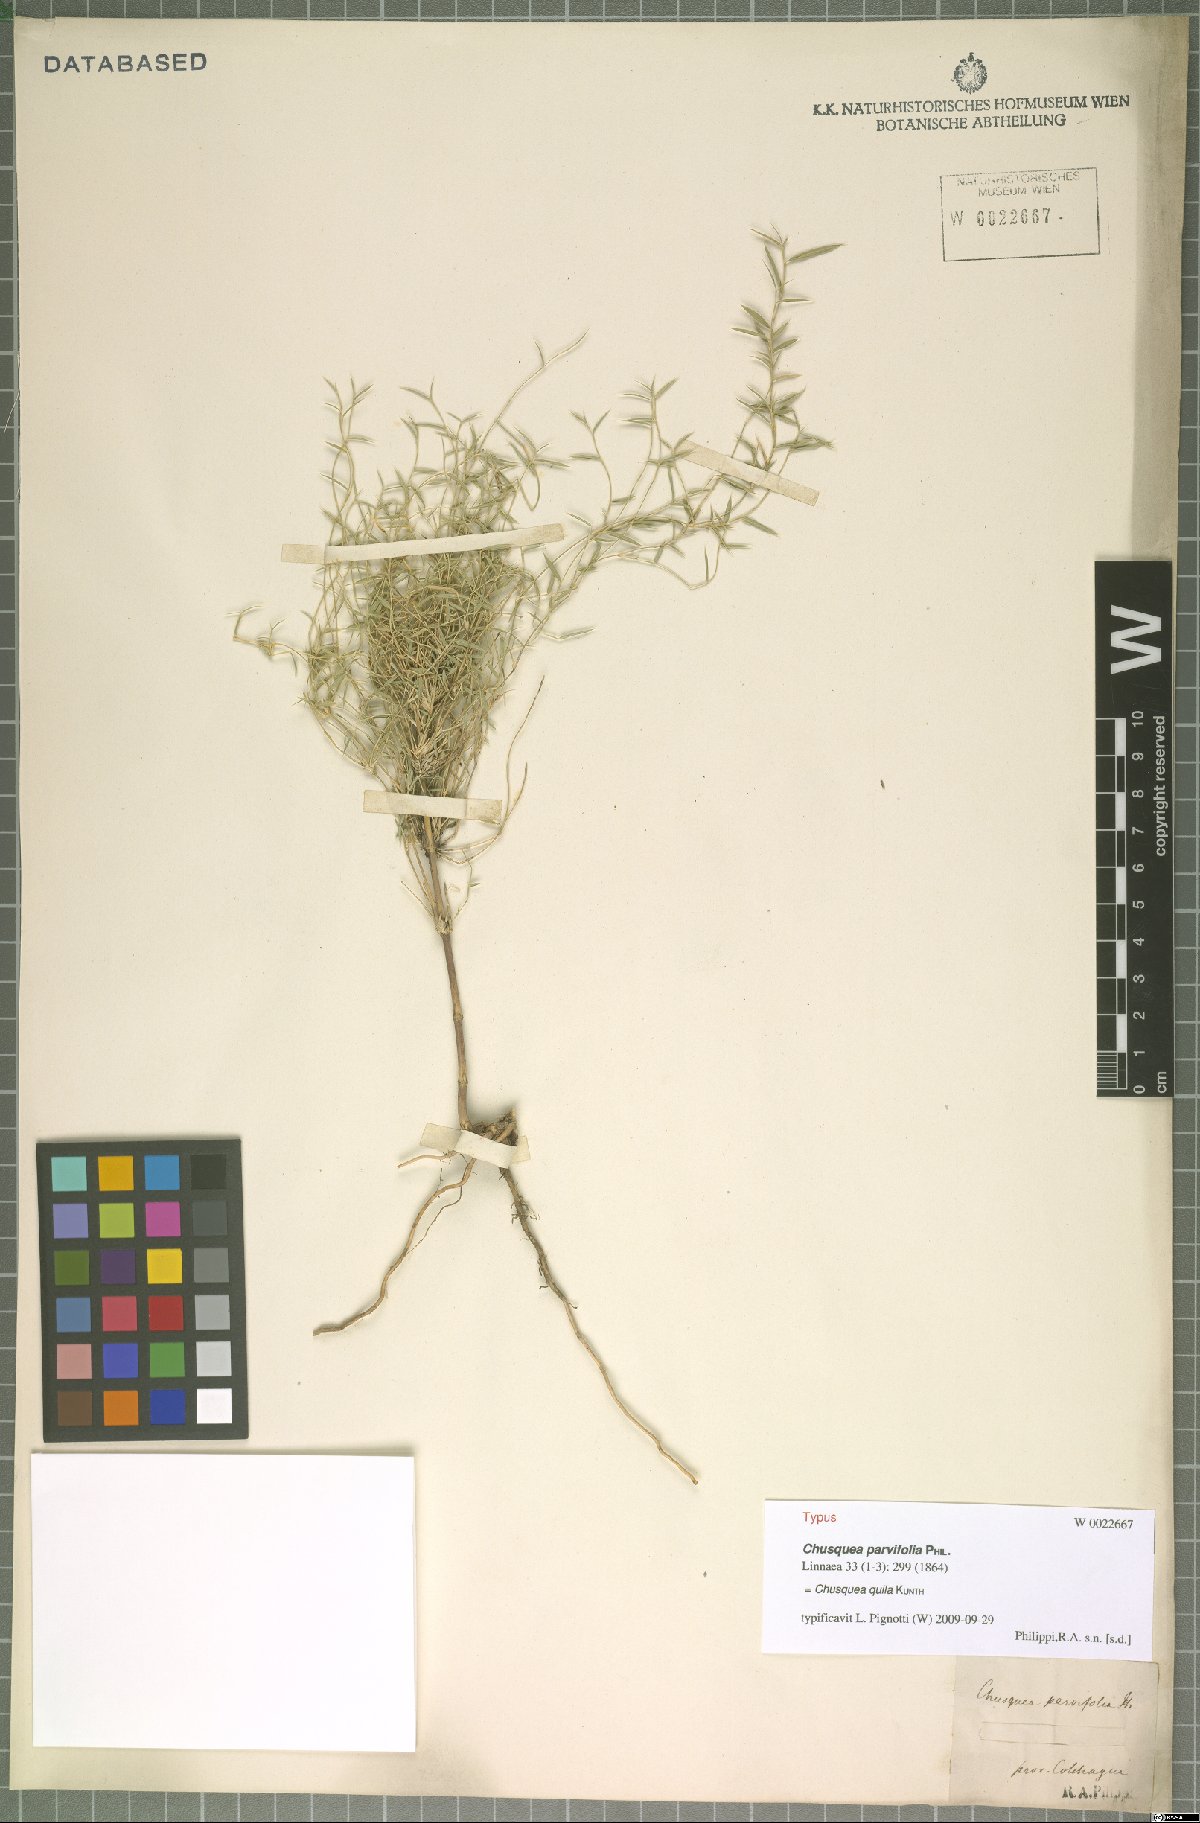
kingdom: Plantae
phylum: Tracheophyta
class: Liliopsida
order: Poales
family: Poaceae
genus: Chusquea
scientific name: Chusquea quila
